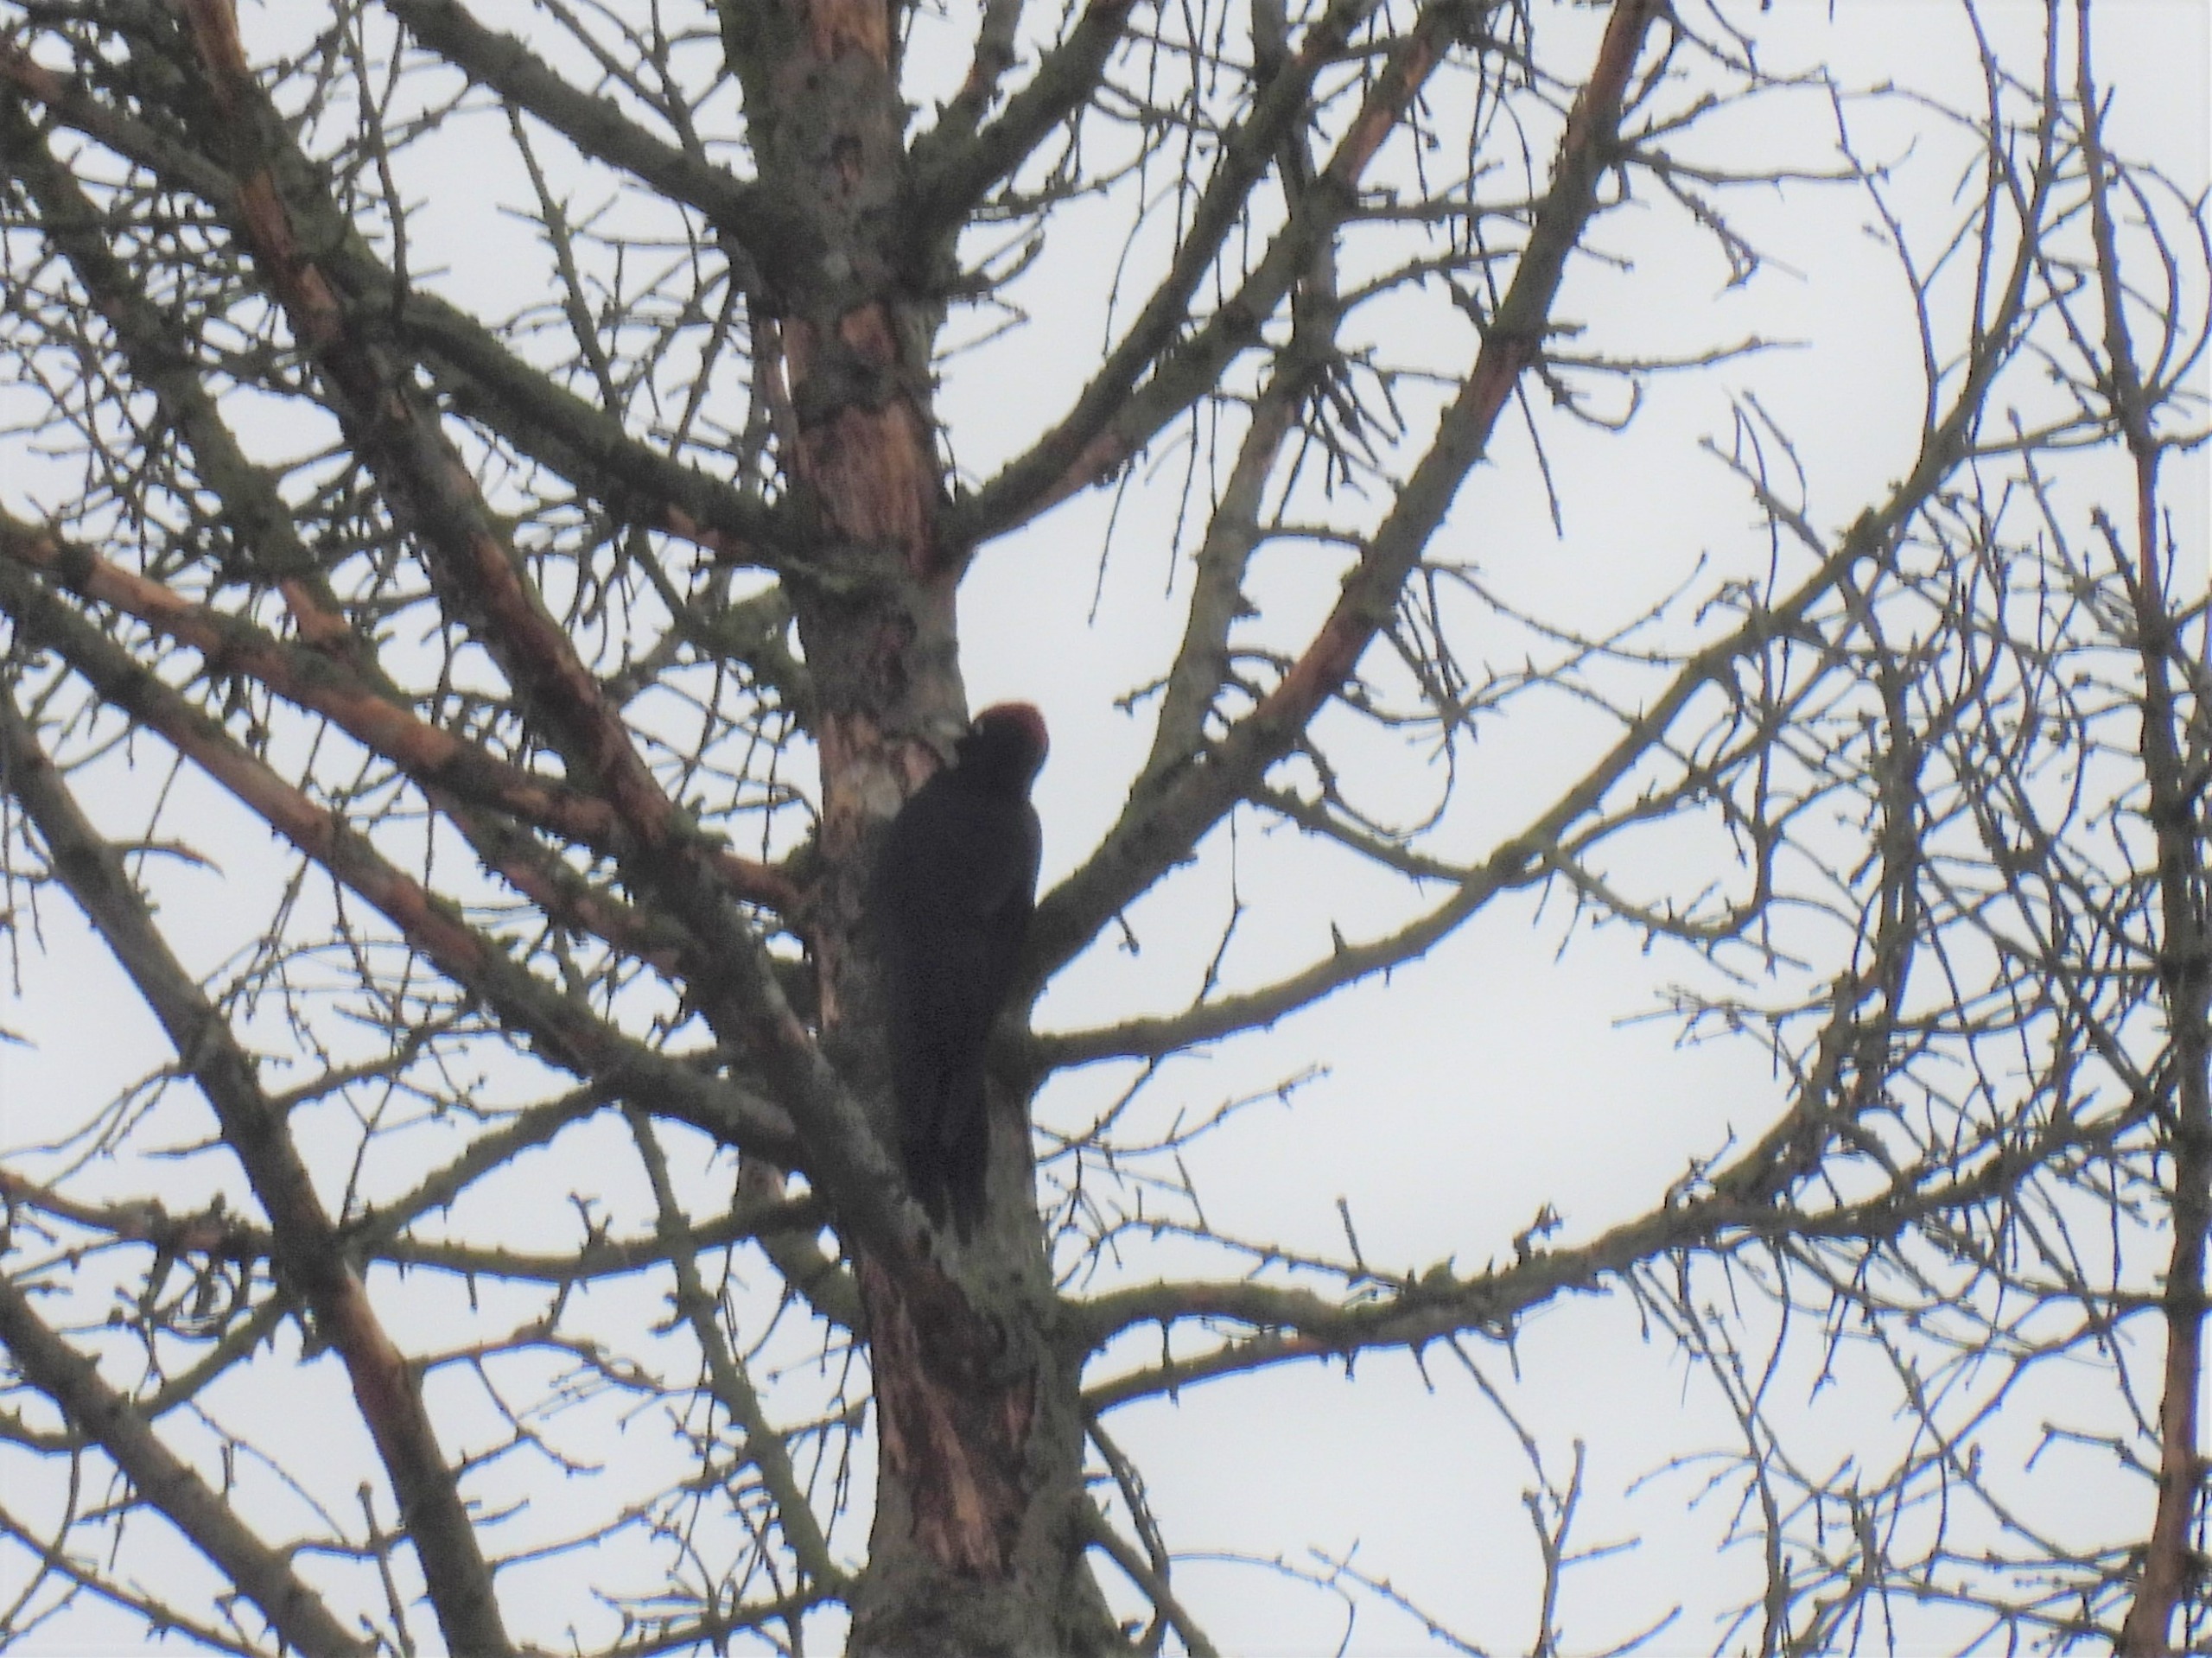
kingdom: Animalia
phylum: Chordata
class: Aves
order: Piciformes
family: Picidae
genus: Dryocopus
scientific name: Dryocopus martius
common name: Sortspætte
